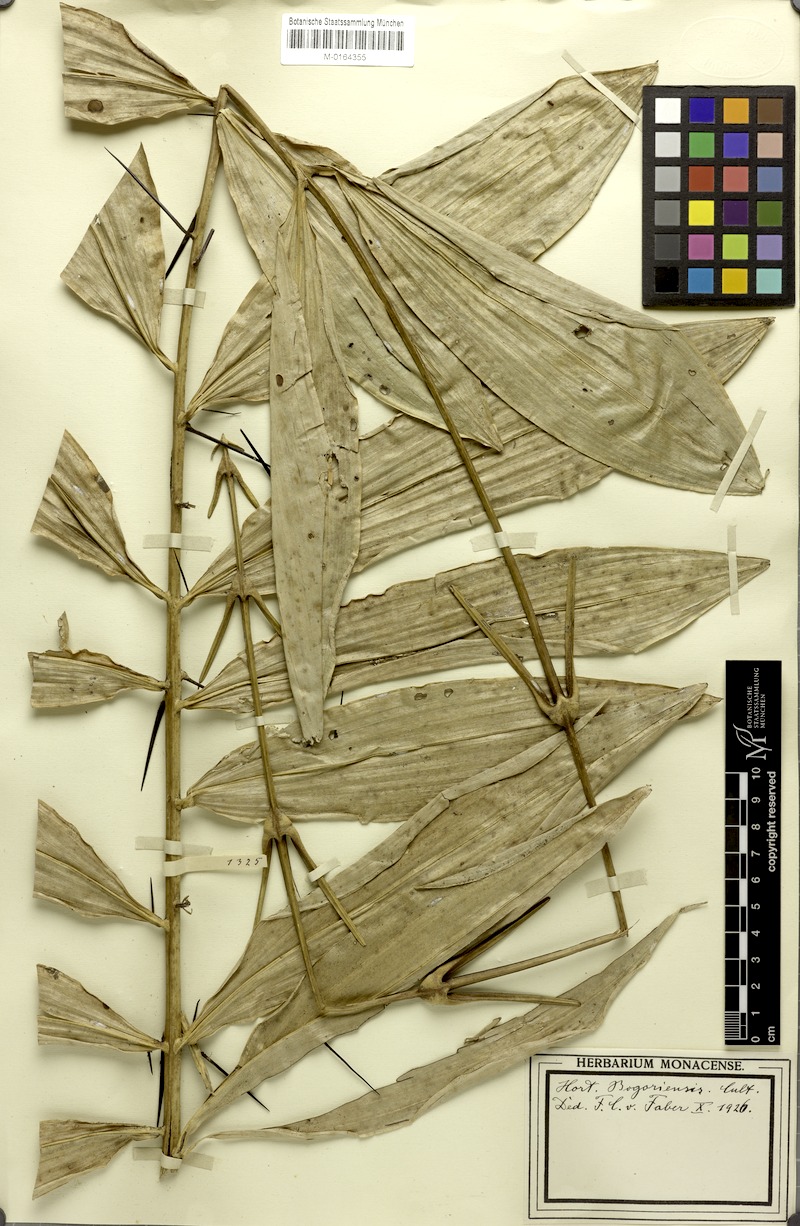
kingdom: Plantae
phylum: Tracheophyta
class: Liliopsida
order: Arecales
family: Arecaceae
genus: Calamus
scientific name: Calamus
